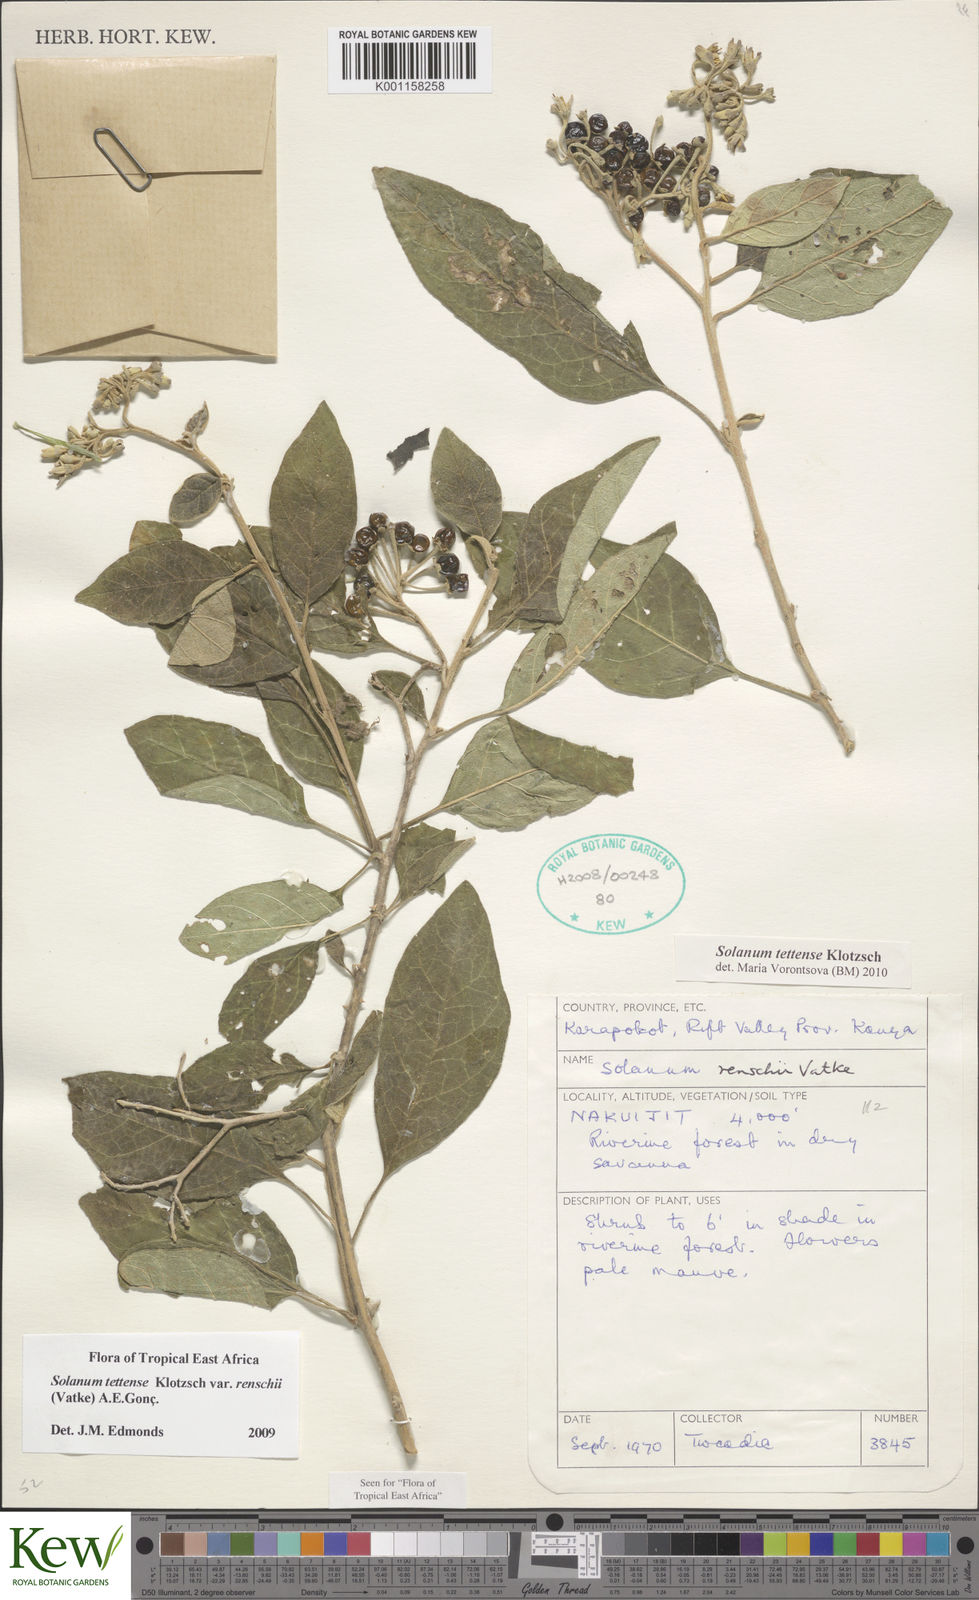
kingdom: Plantae
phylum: Tracheophyta
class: Magnoliopsida
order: Solanales
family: Solanaceae
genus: Solanum
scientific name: Solanum tettense
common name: Mozambique bitter apple
